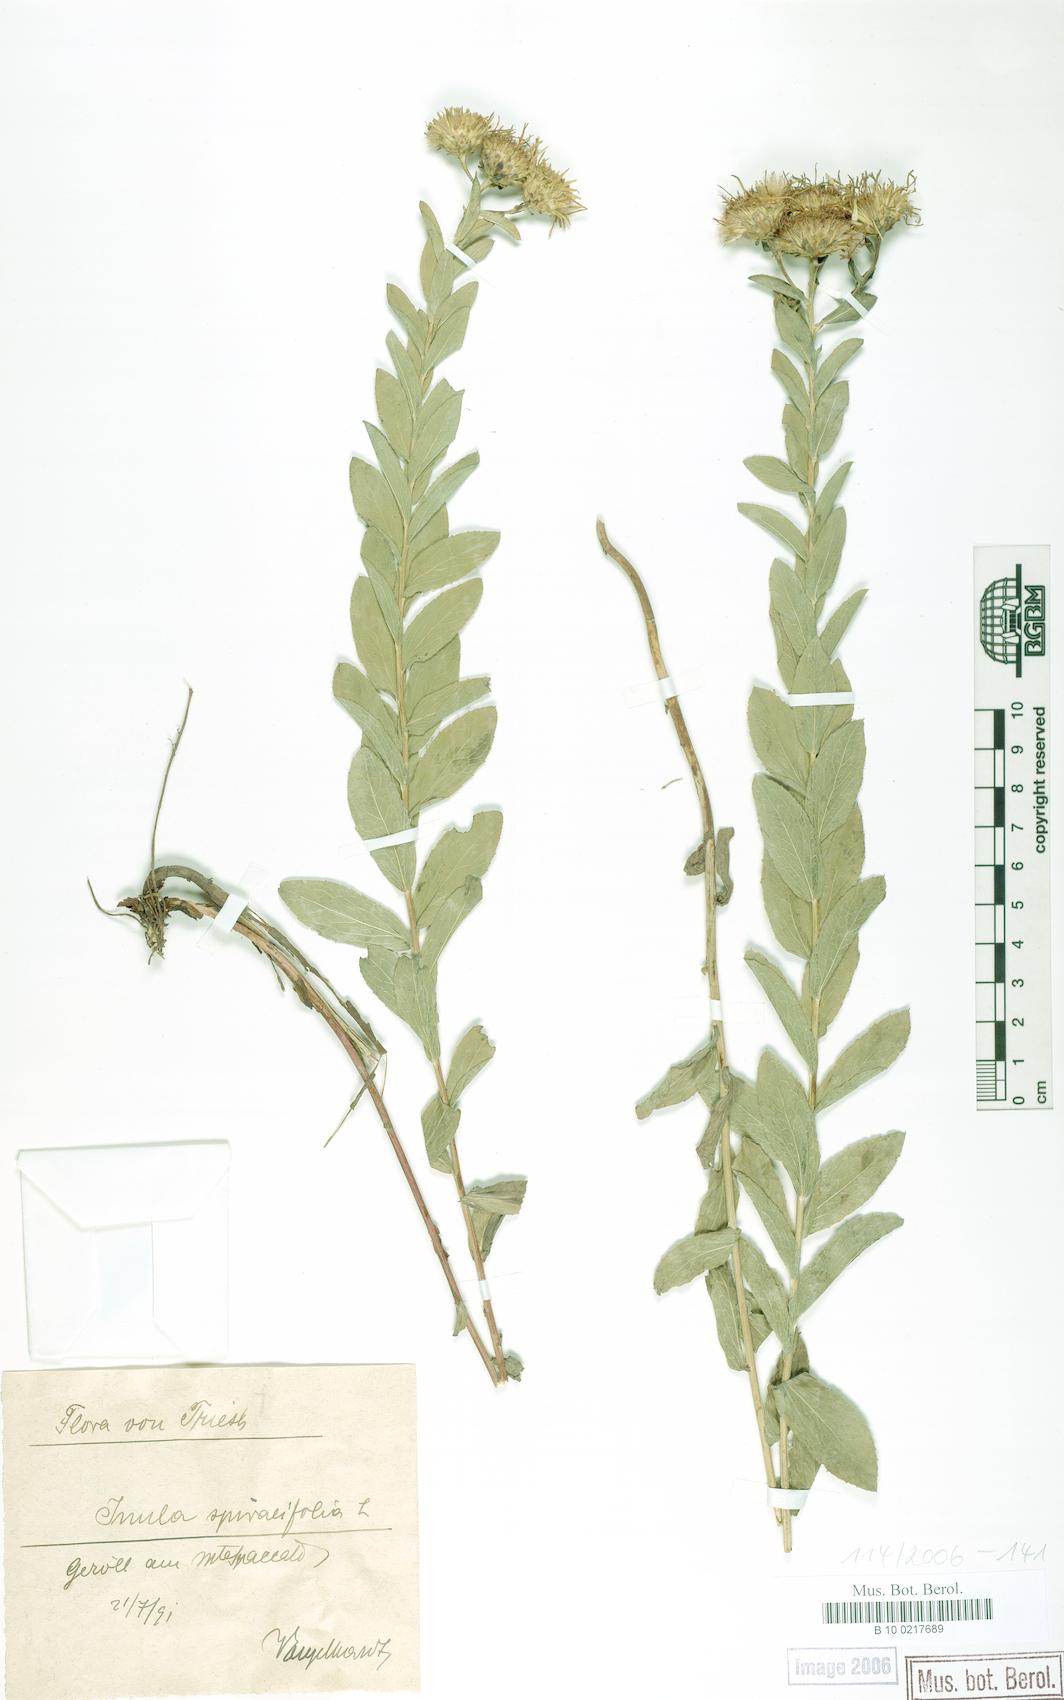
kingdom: Plantae
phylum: Tracheophyta
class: Magnoliopsida
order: Asterales
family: Asteraceae
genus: Pentanema
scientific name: Pentanema spiraeifolium
